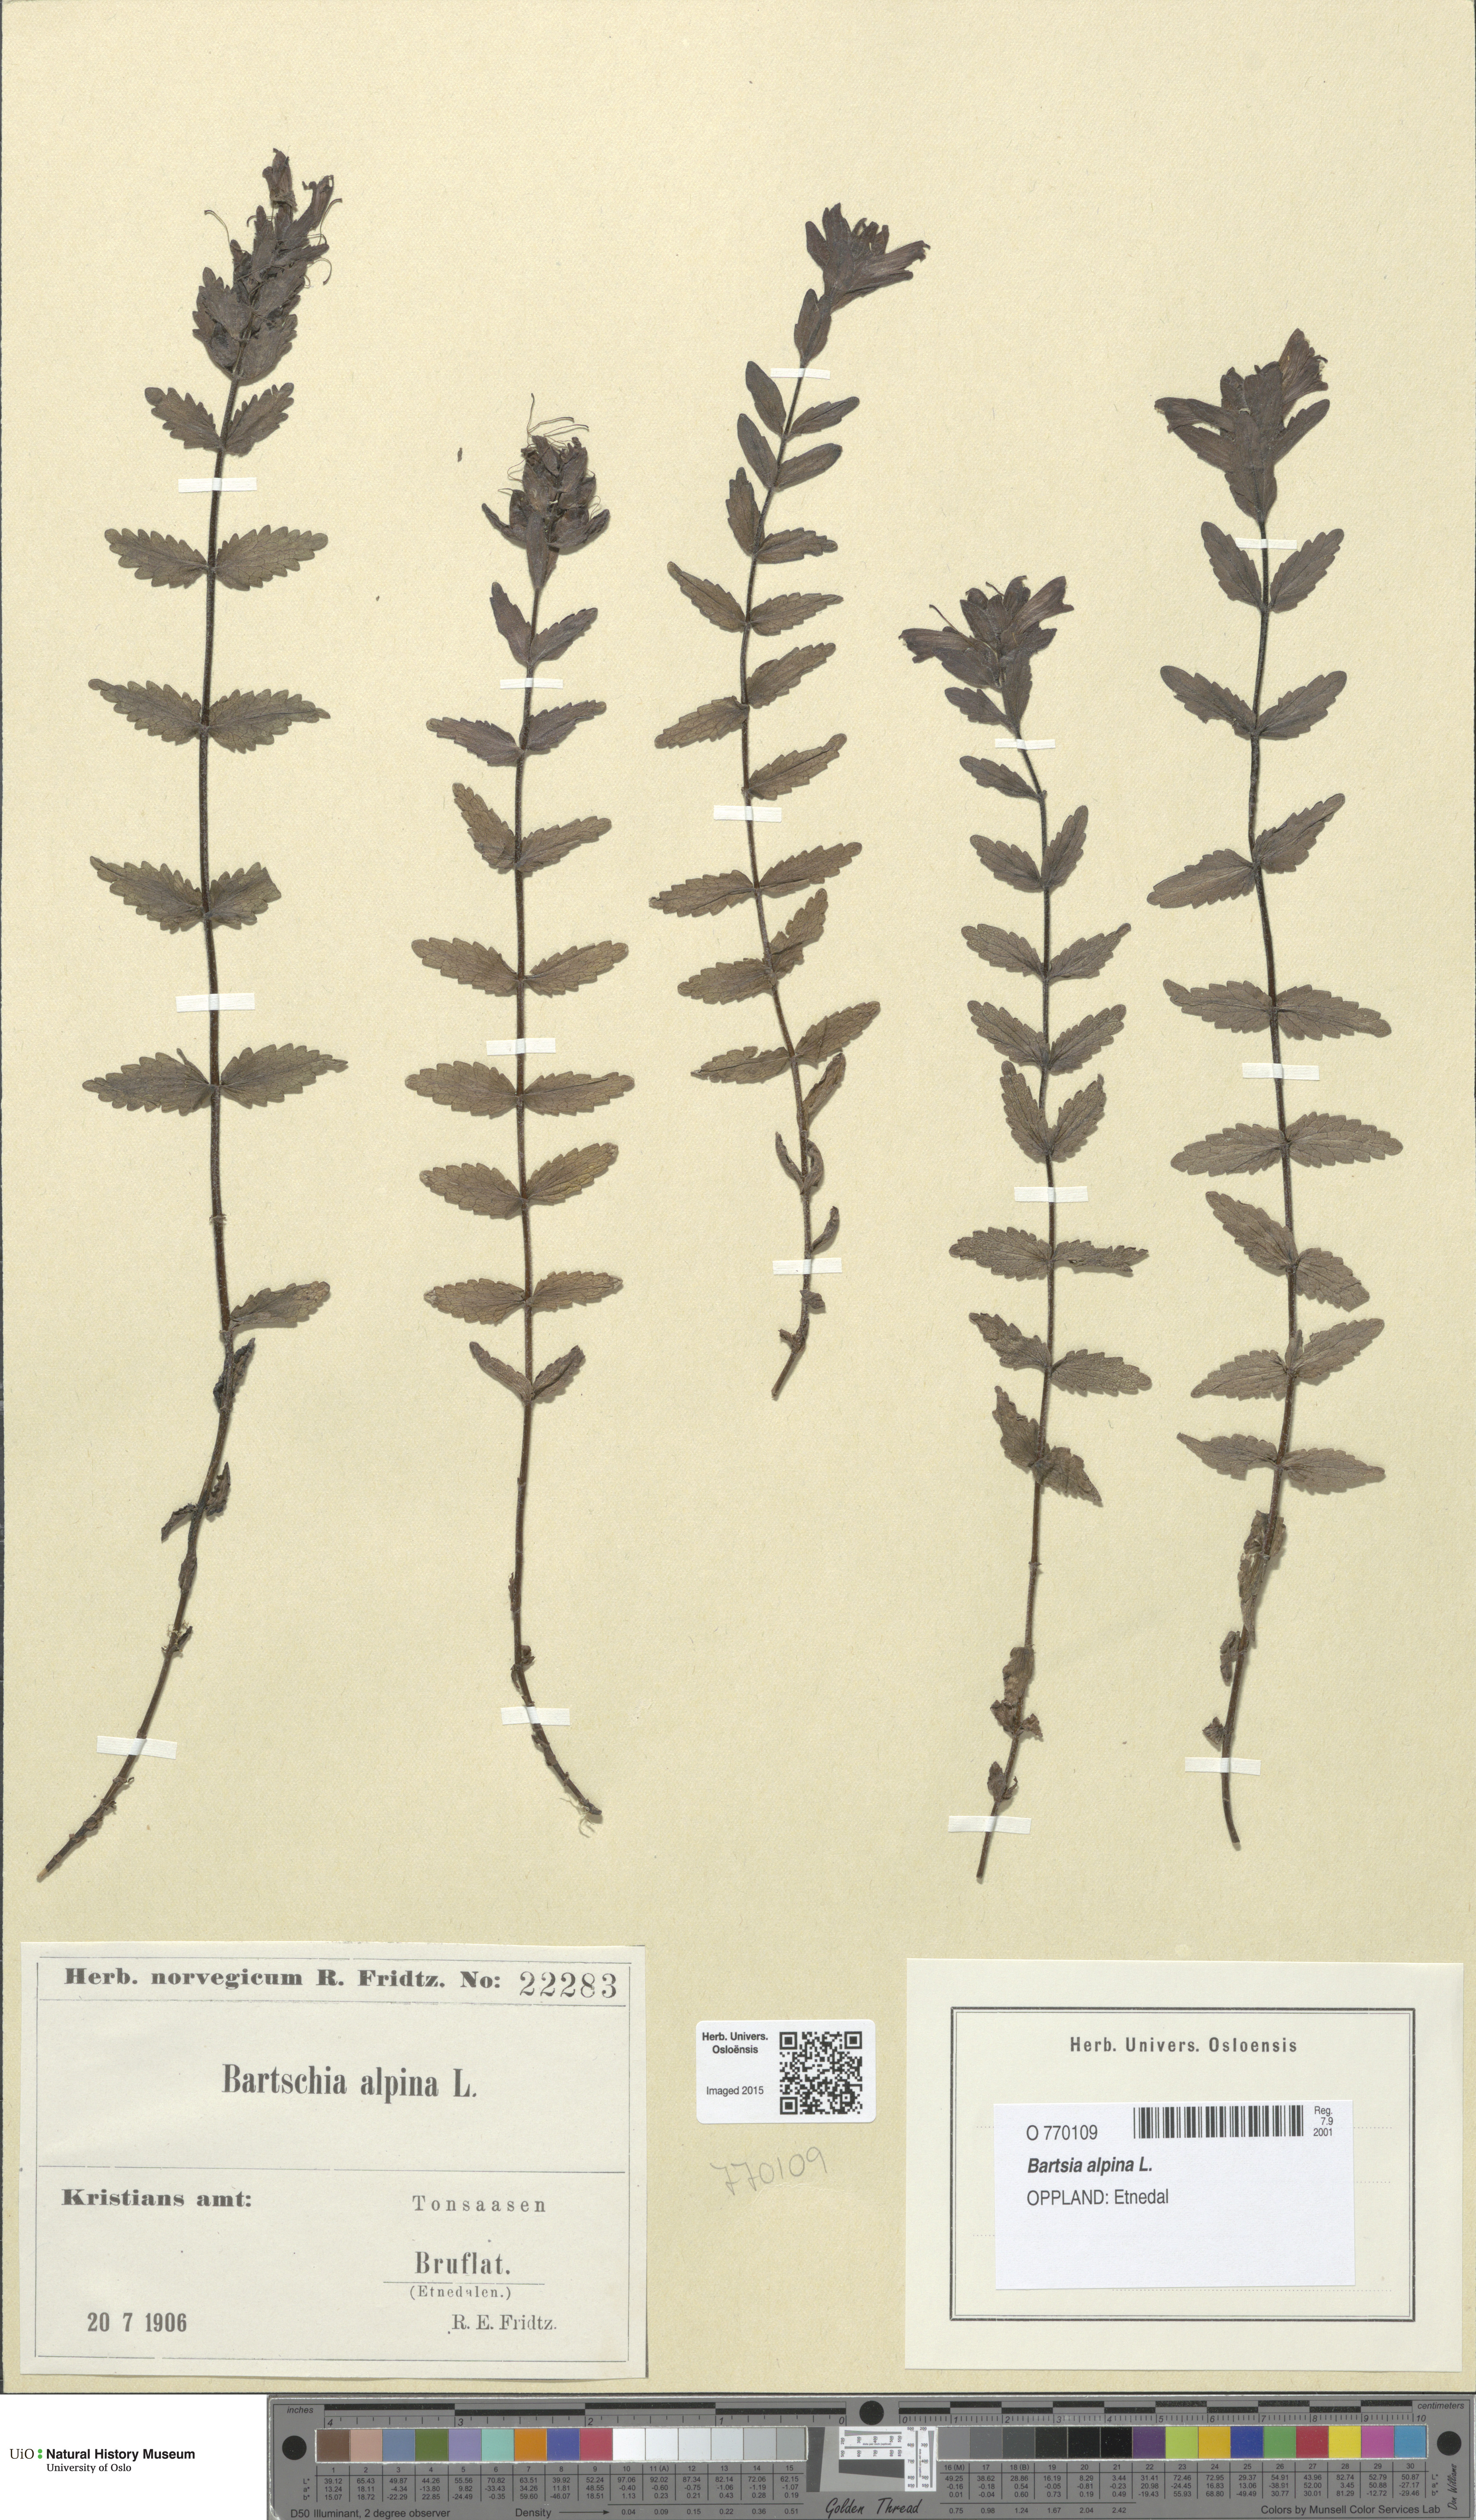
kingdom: Plantae
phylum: Tracheophyta
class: Magnoliopsida
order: Lamiales
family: Orobanchaceae
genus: Bartsia
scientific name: Bartsia alpina
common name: Alpine bartsia
